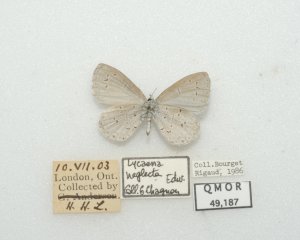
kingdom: Animalia
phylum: Arthropoda
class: Insecta
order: Lepidoptera
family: Lycaenidae
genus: Cyaniris
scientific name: Cyaniris neglecta
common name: Summer Azure
